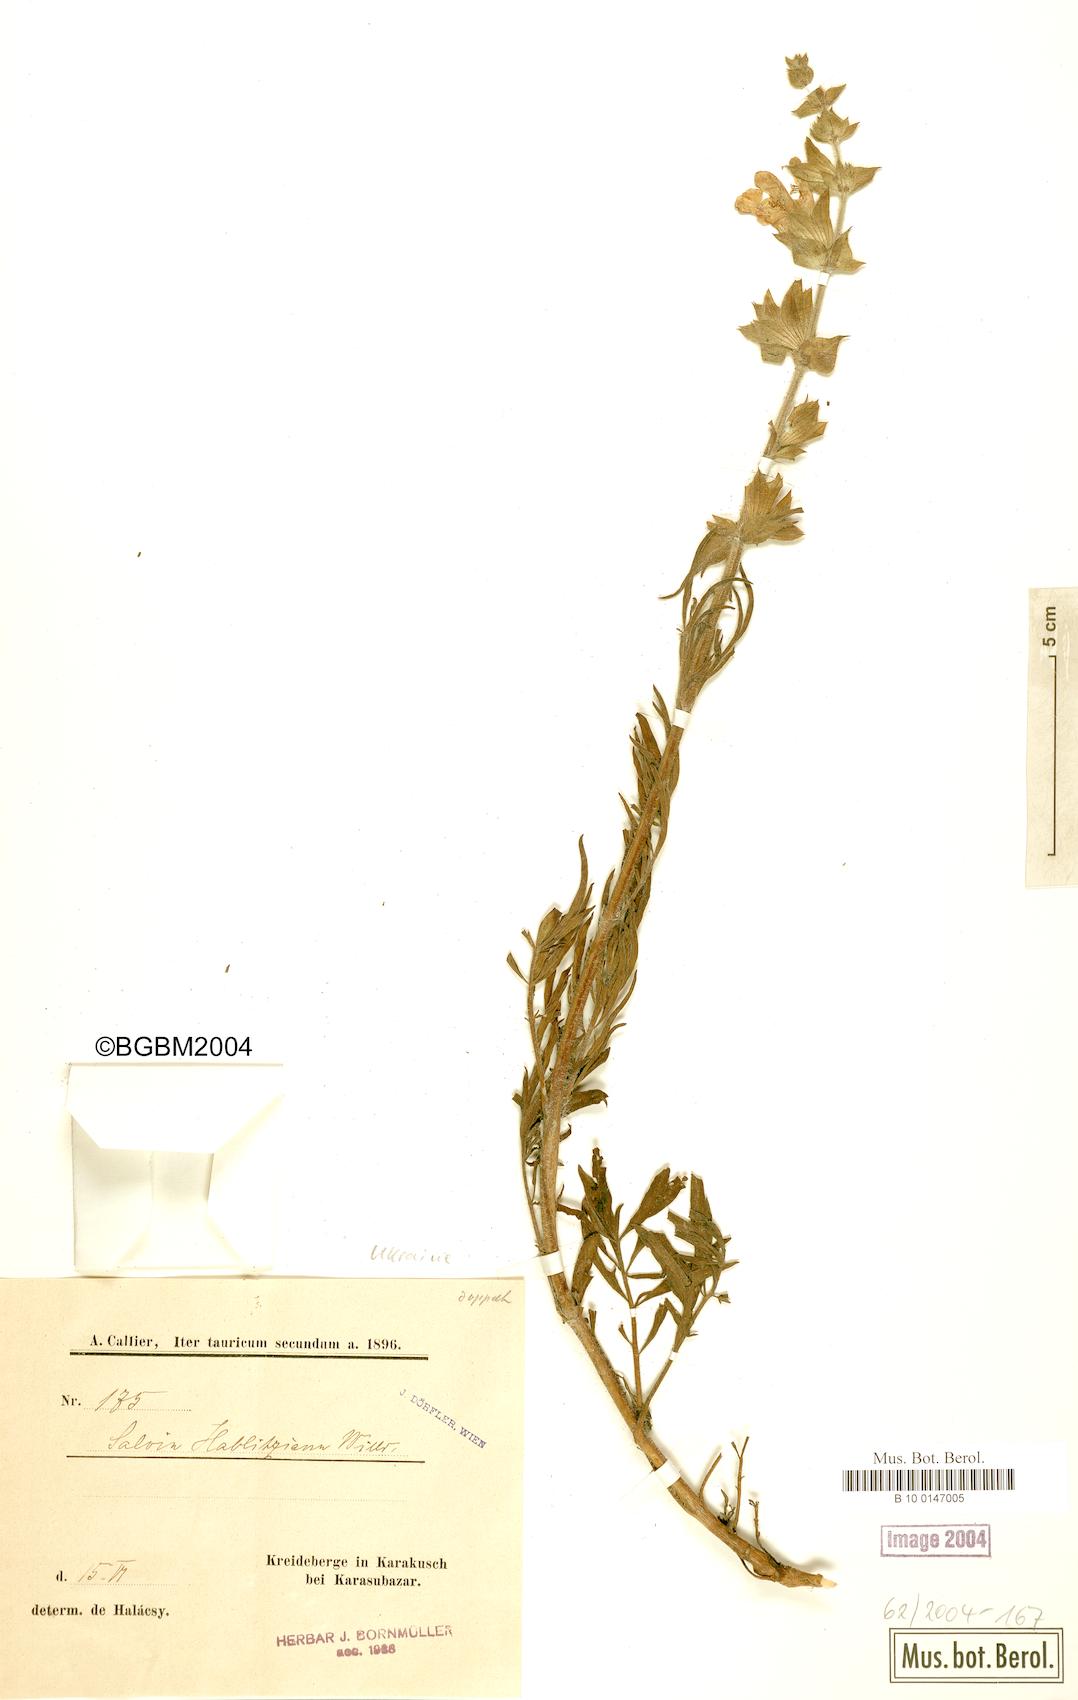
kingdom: Plantae
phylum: Tracheophyta
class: Magnoliopsida
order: Lamiales
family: Lamiaceae
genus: Salvia
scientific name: Salvia scabiosifolia
